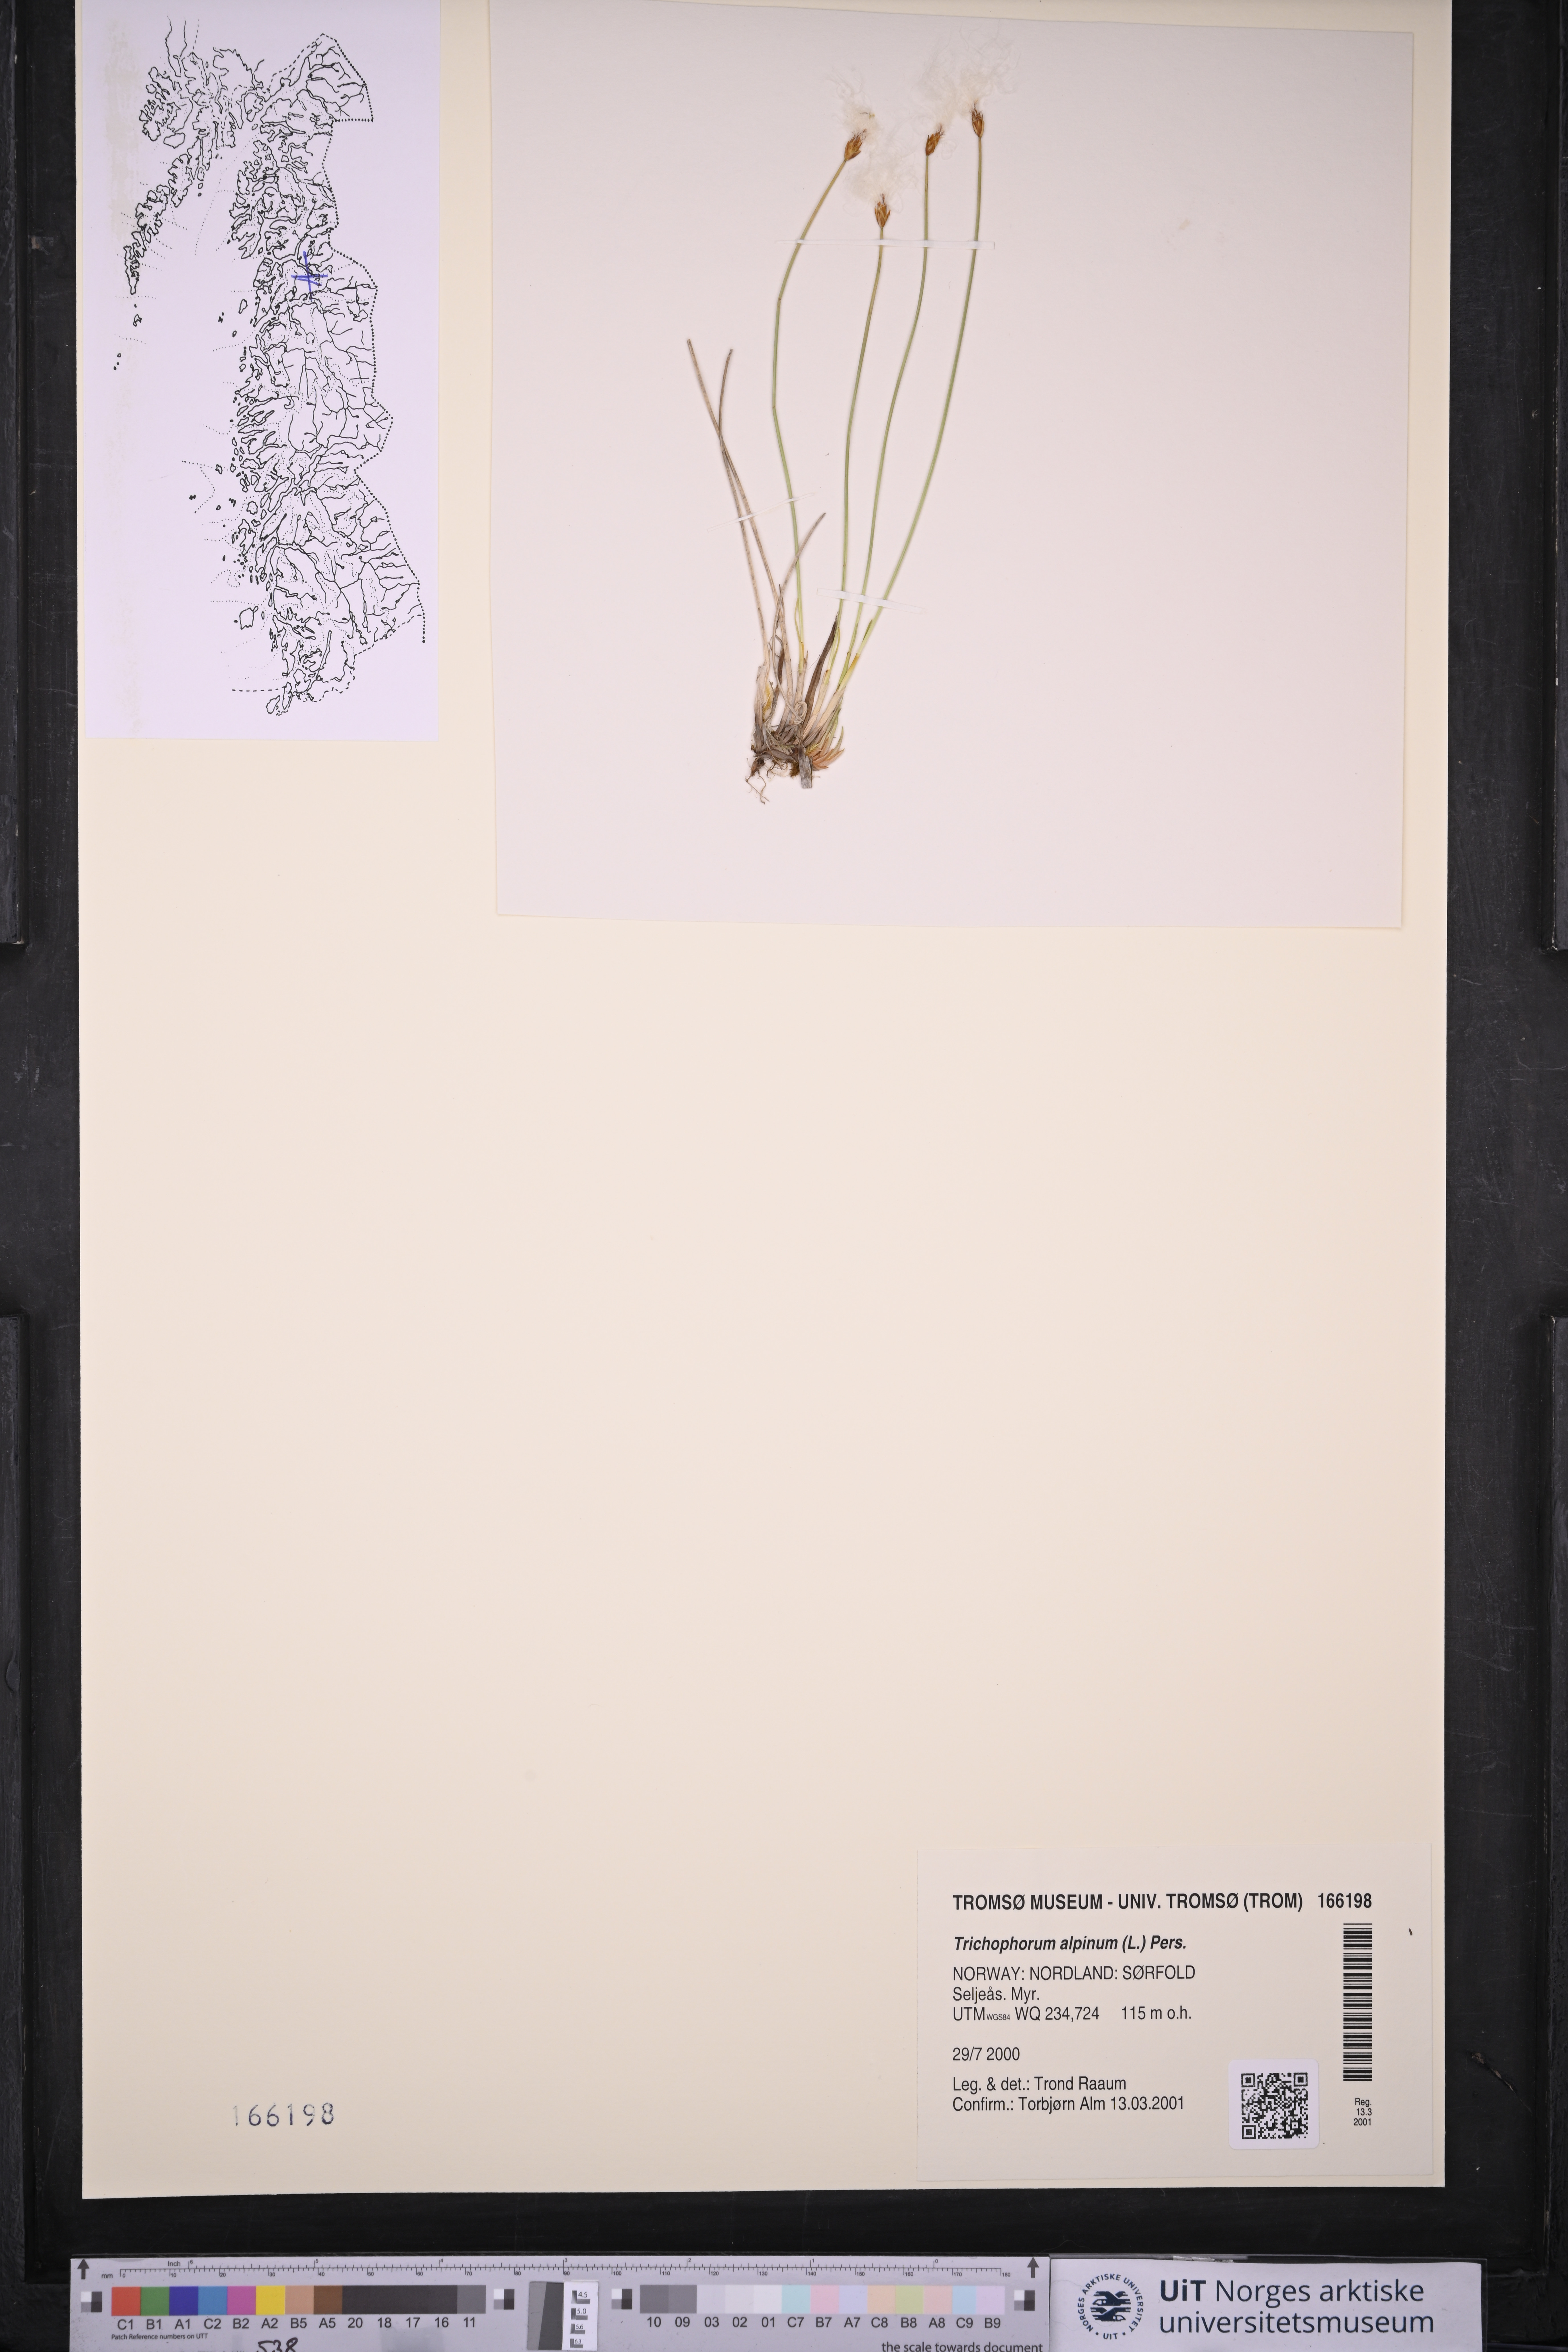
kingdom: Plantae
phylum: Tracheophyta
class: Liliopsida
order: Poales
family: Cyperaceae
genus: Trichophorum
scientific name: Trichophorum alpinum
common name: Alpine bulrush
